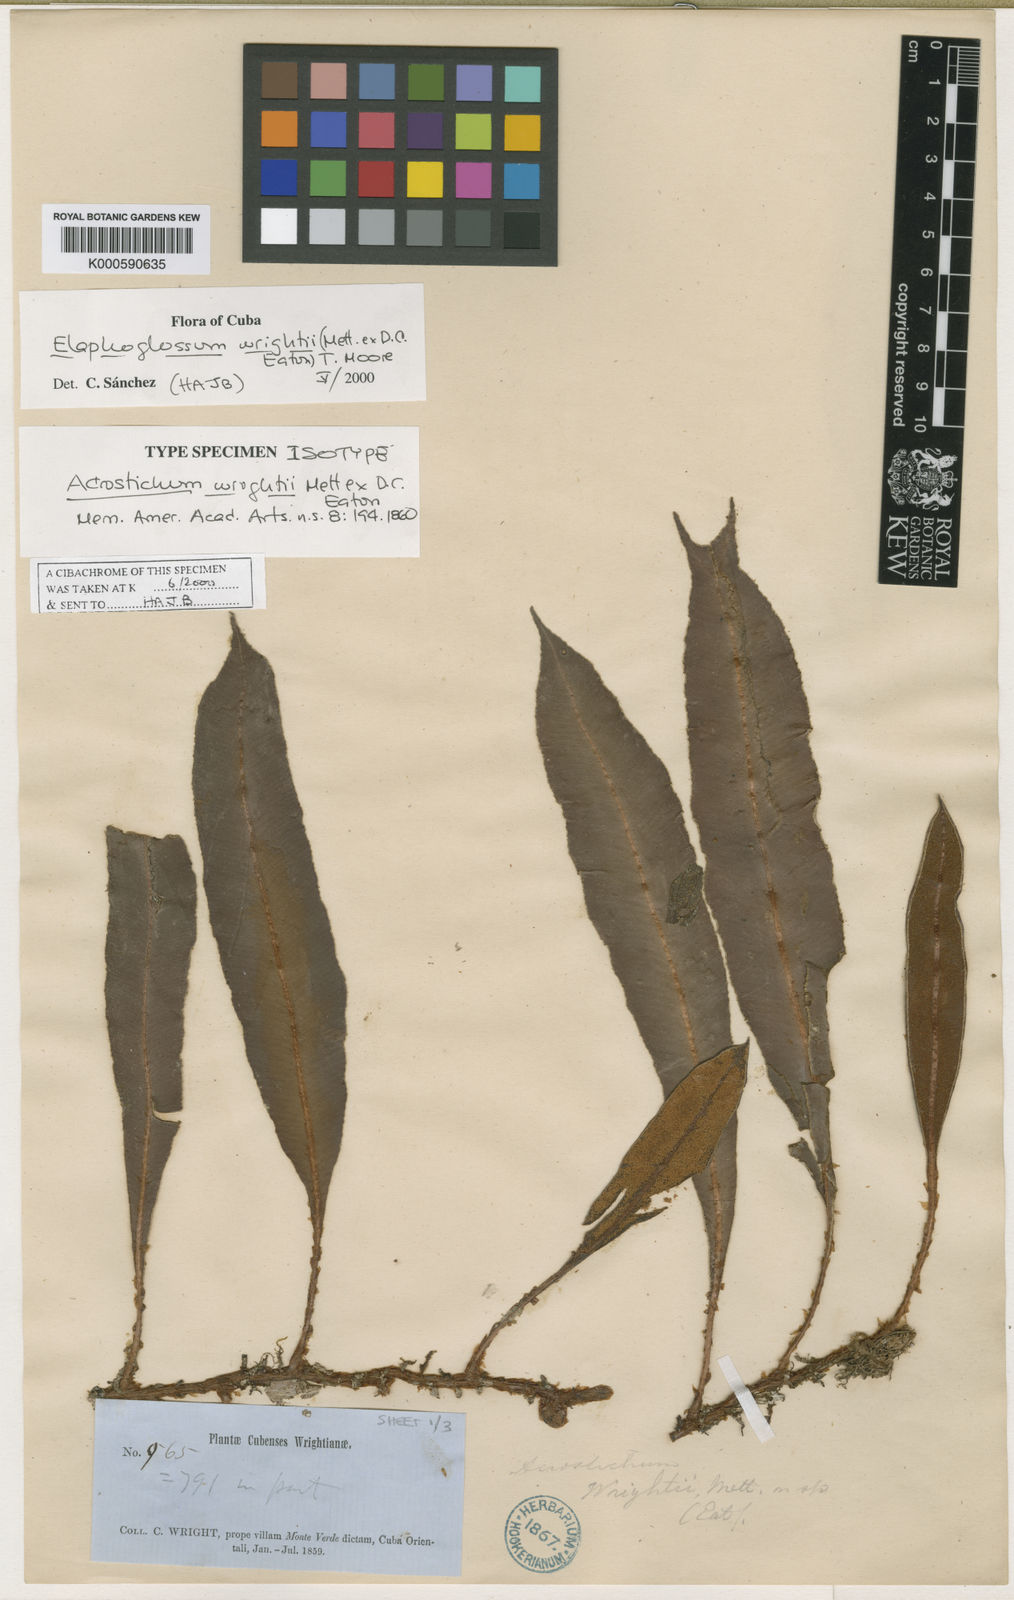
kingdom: Plantae
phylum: Tracheophyta
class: Polypodiopsida
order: Polypodiales
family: Dryopteridaceae
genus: Elaphoglossum
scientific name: Elaphoglossum wrightii
